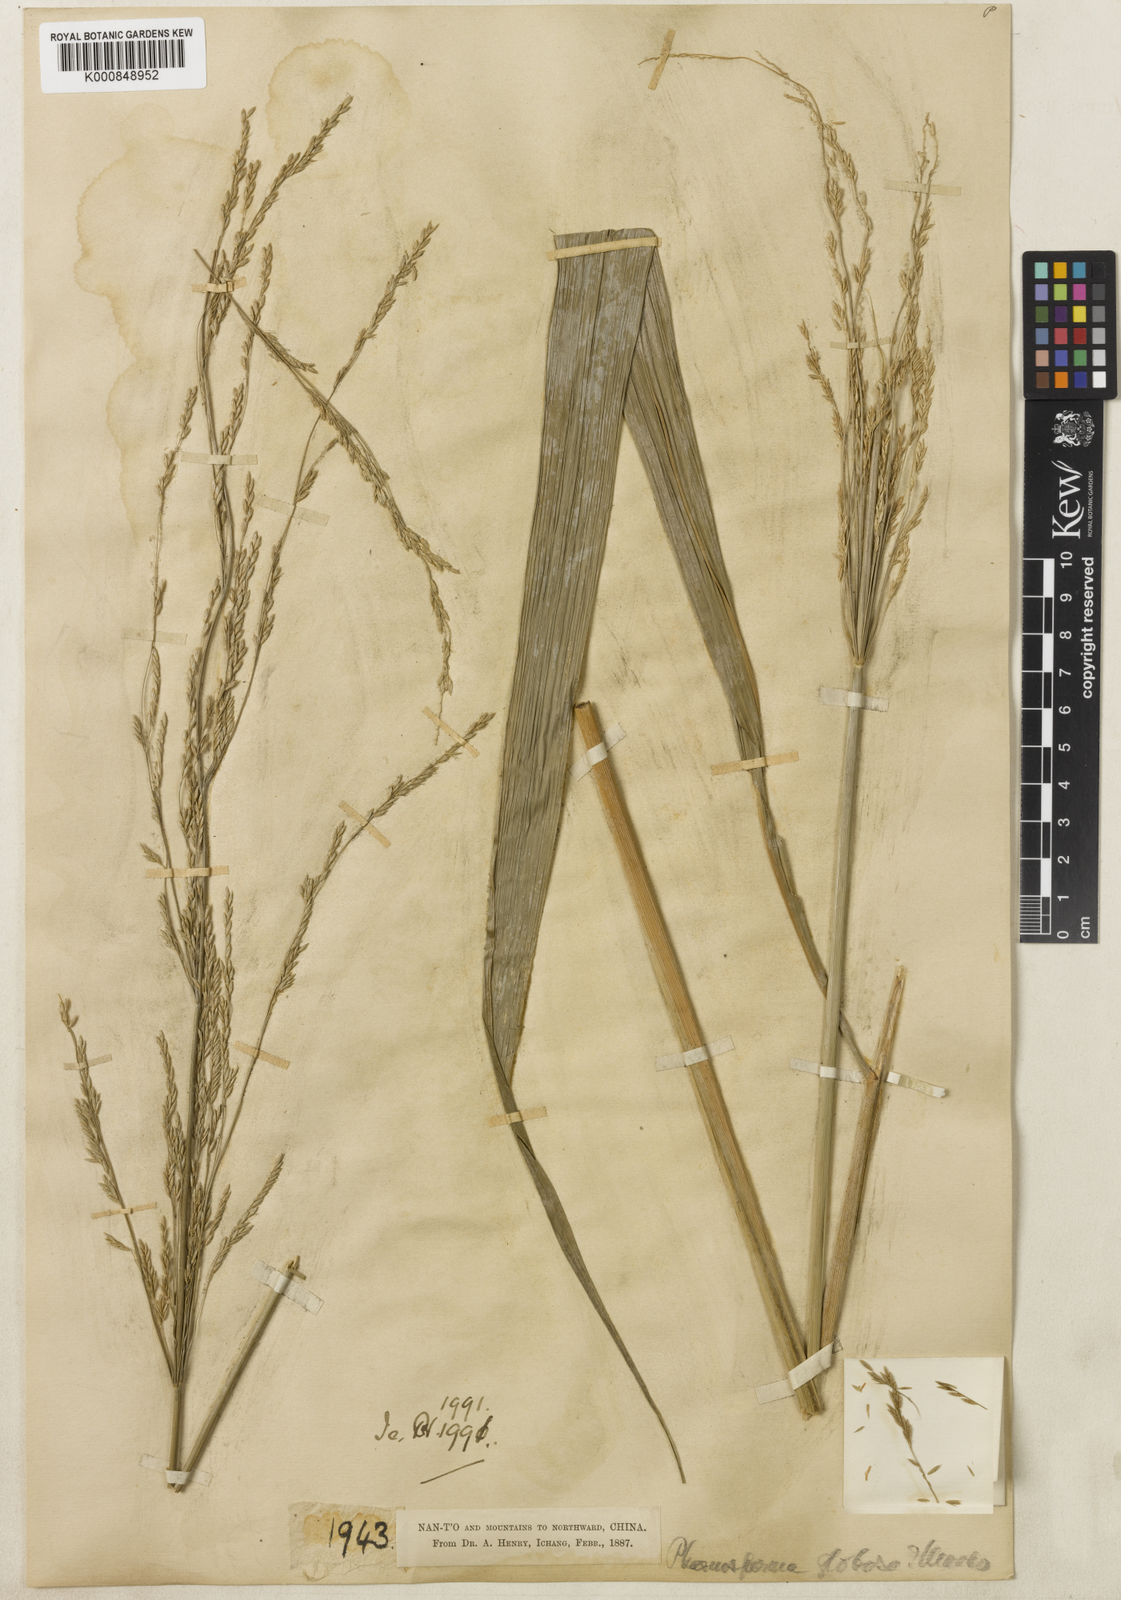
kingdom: Plantae
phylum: Tracheophyta
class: Liliopsida
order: Poales
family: Poaceae
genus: Phaenosperma
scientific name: Phaenosperma
